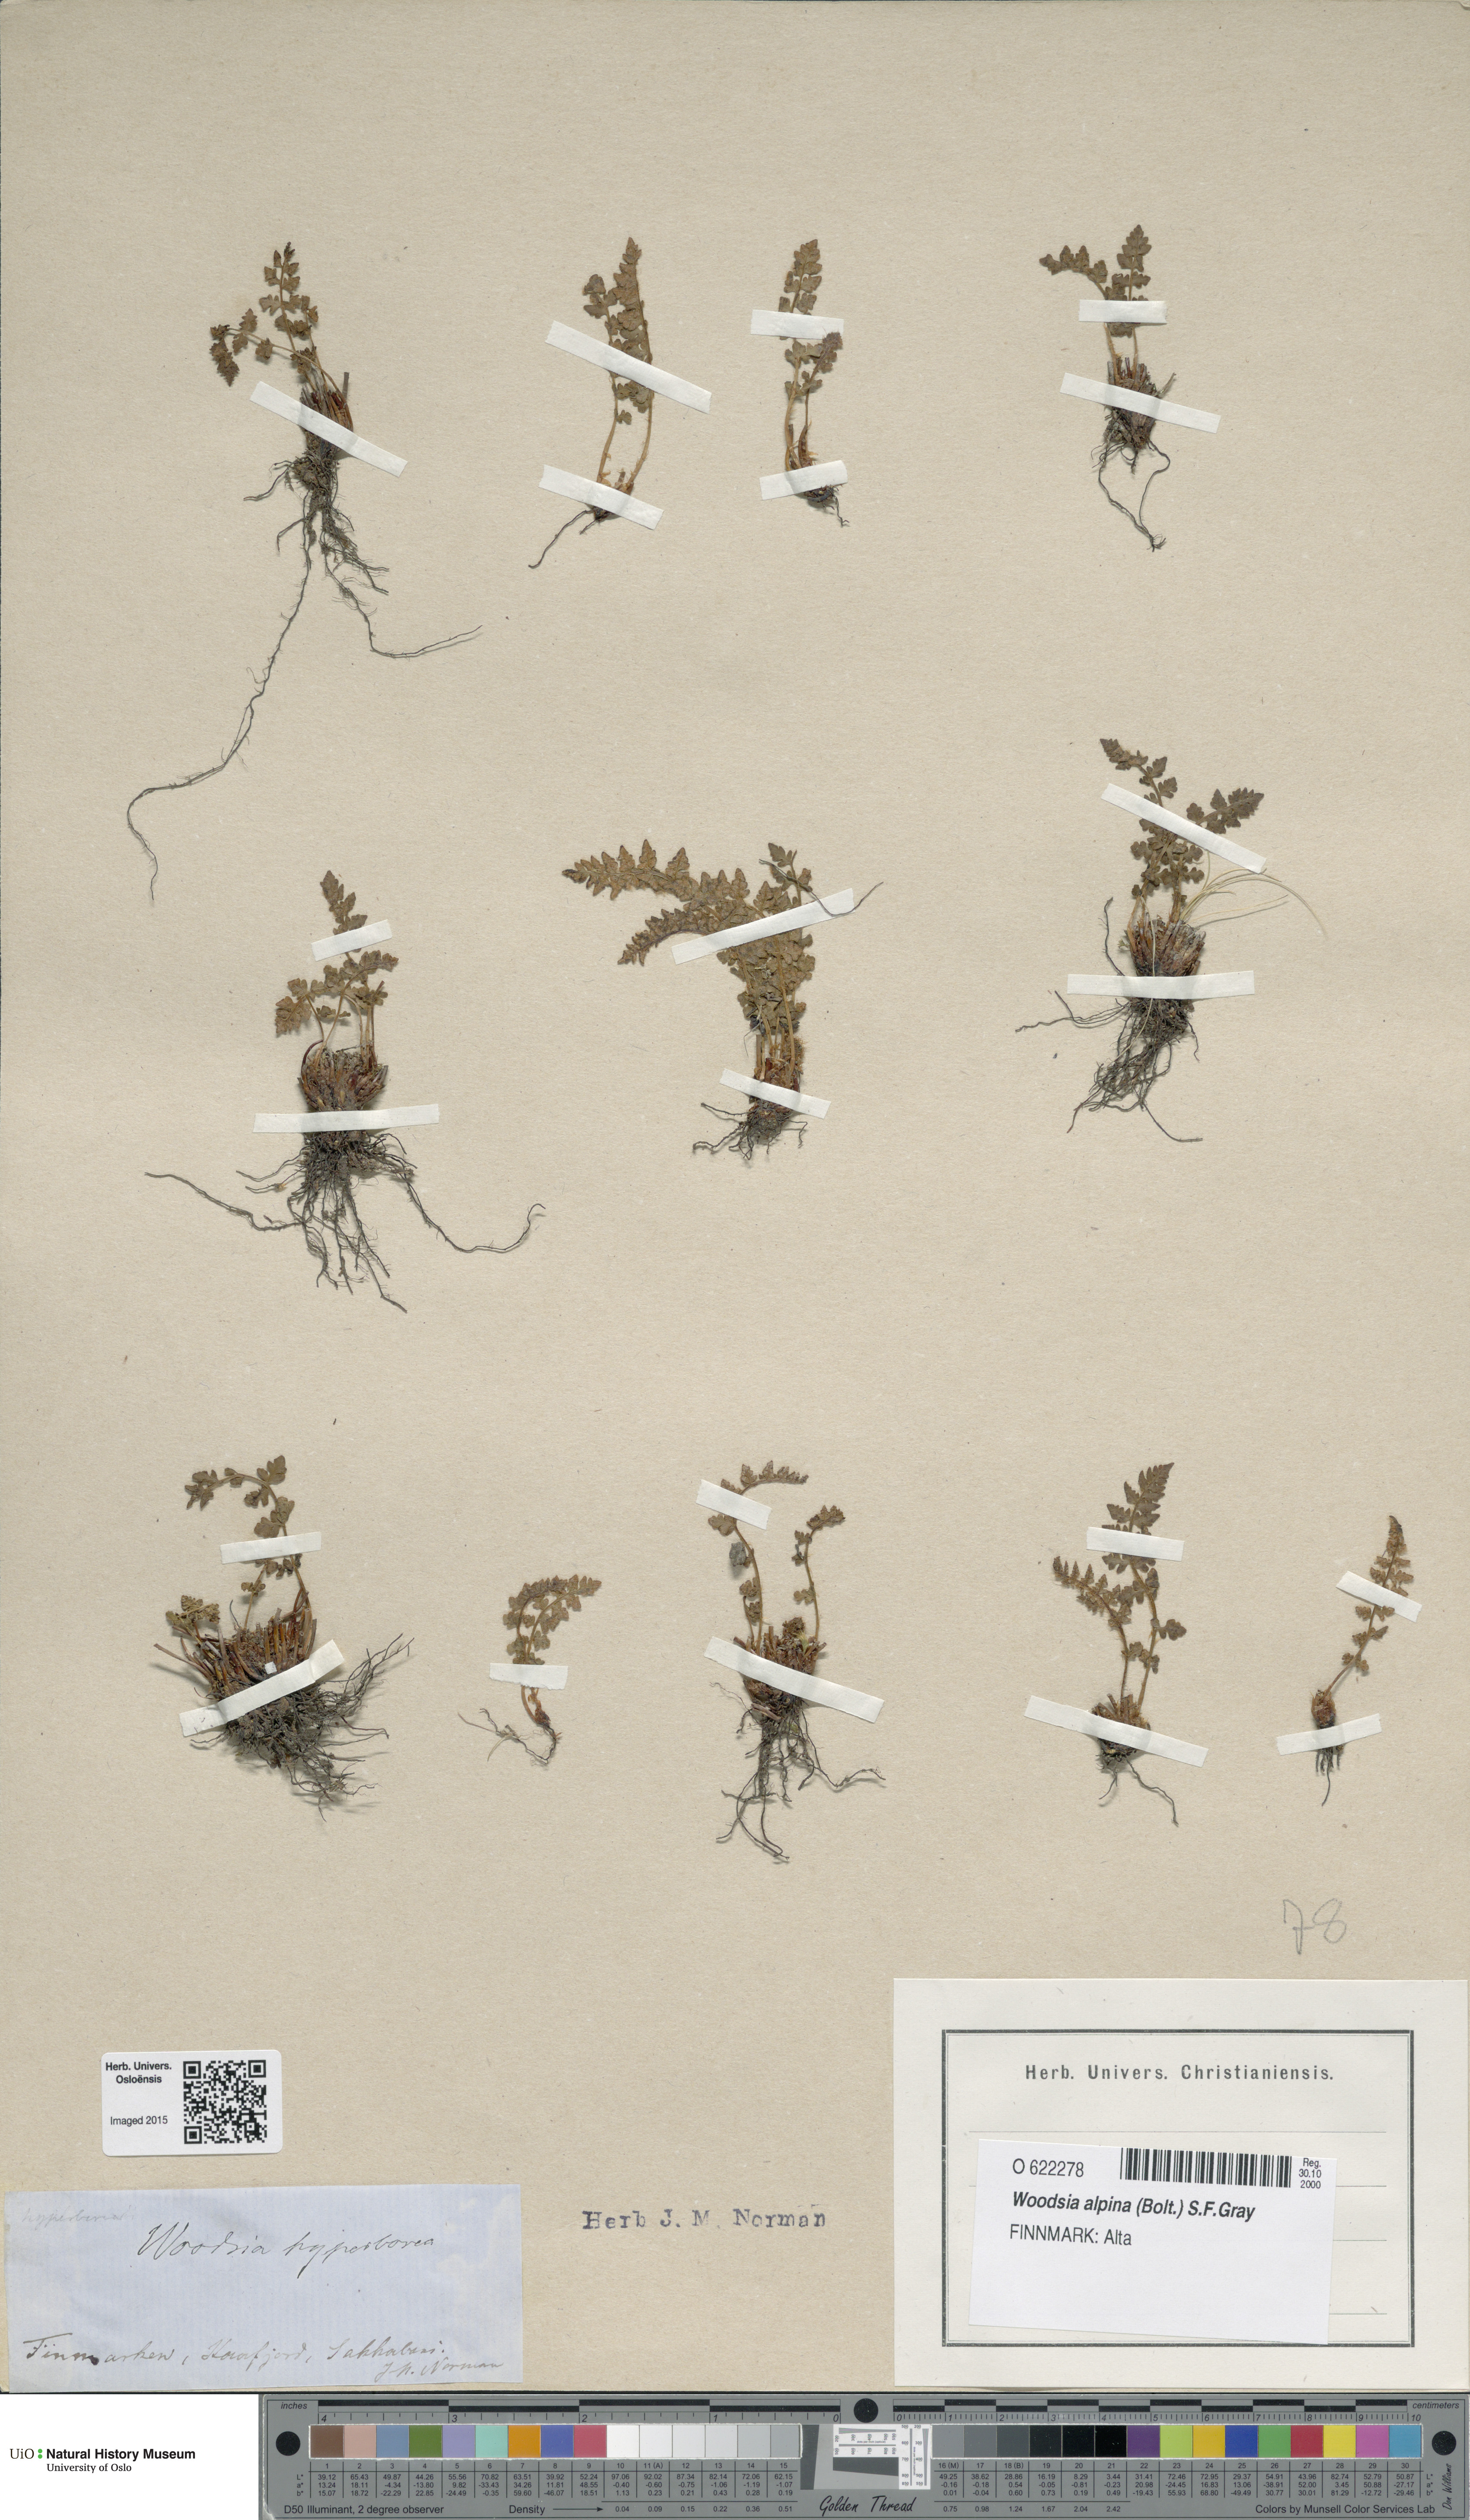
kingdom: Plantae
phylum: Tracheophyta
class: Polypodiopsida
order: Polypodiales
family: Woodsiaceae
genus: Woodsia
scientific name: Woodsia alpina
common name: Alpine woodsia
